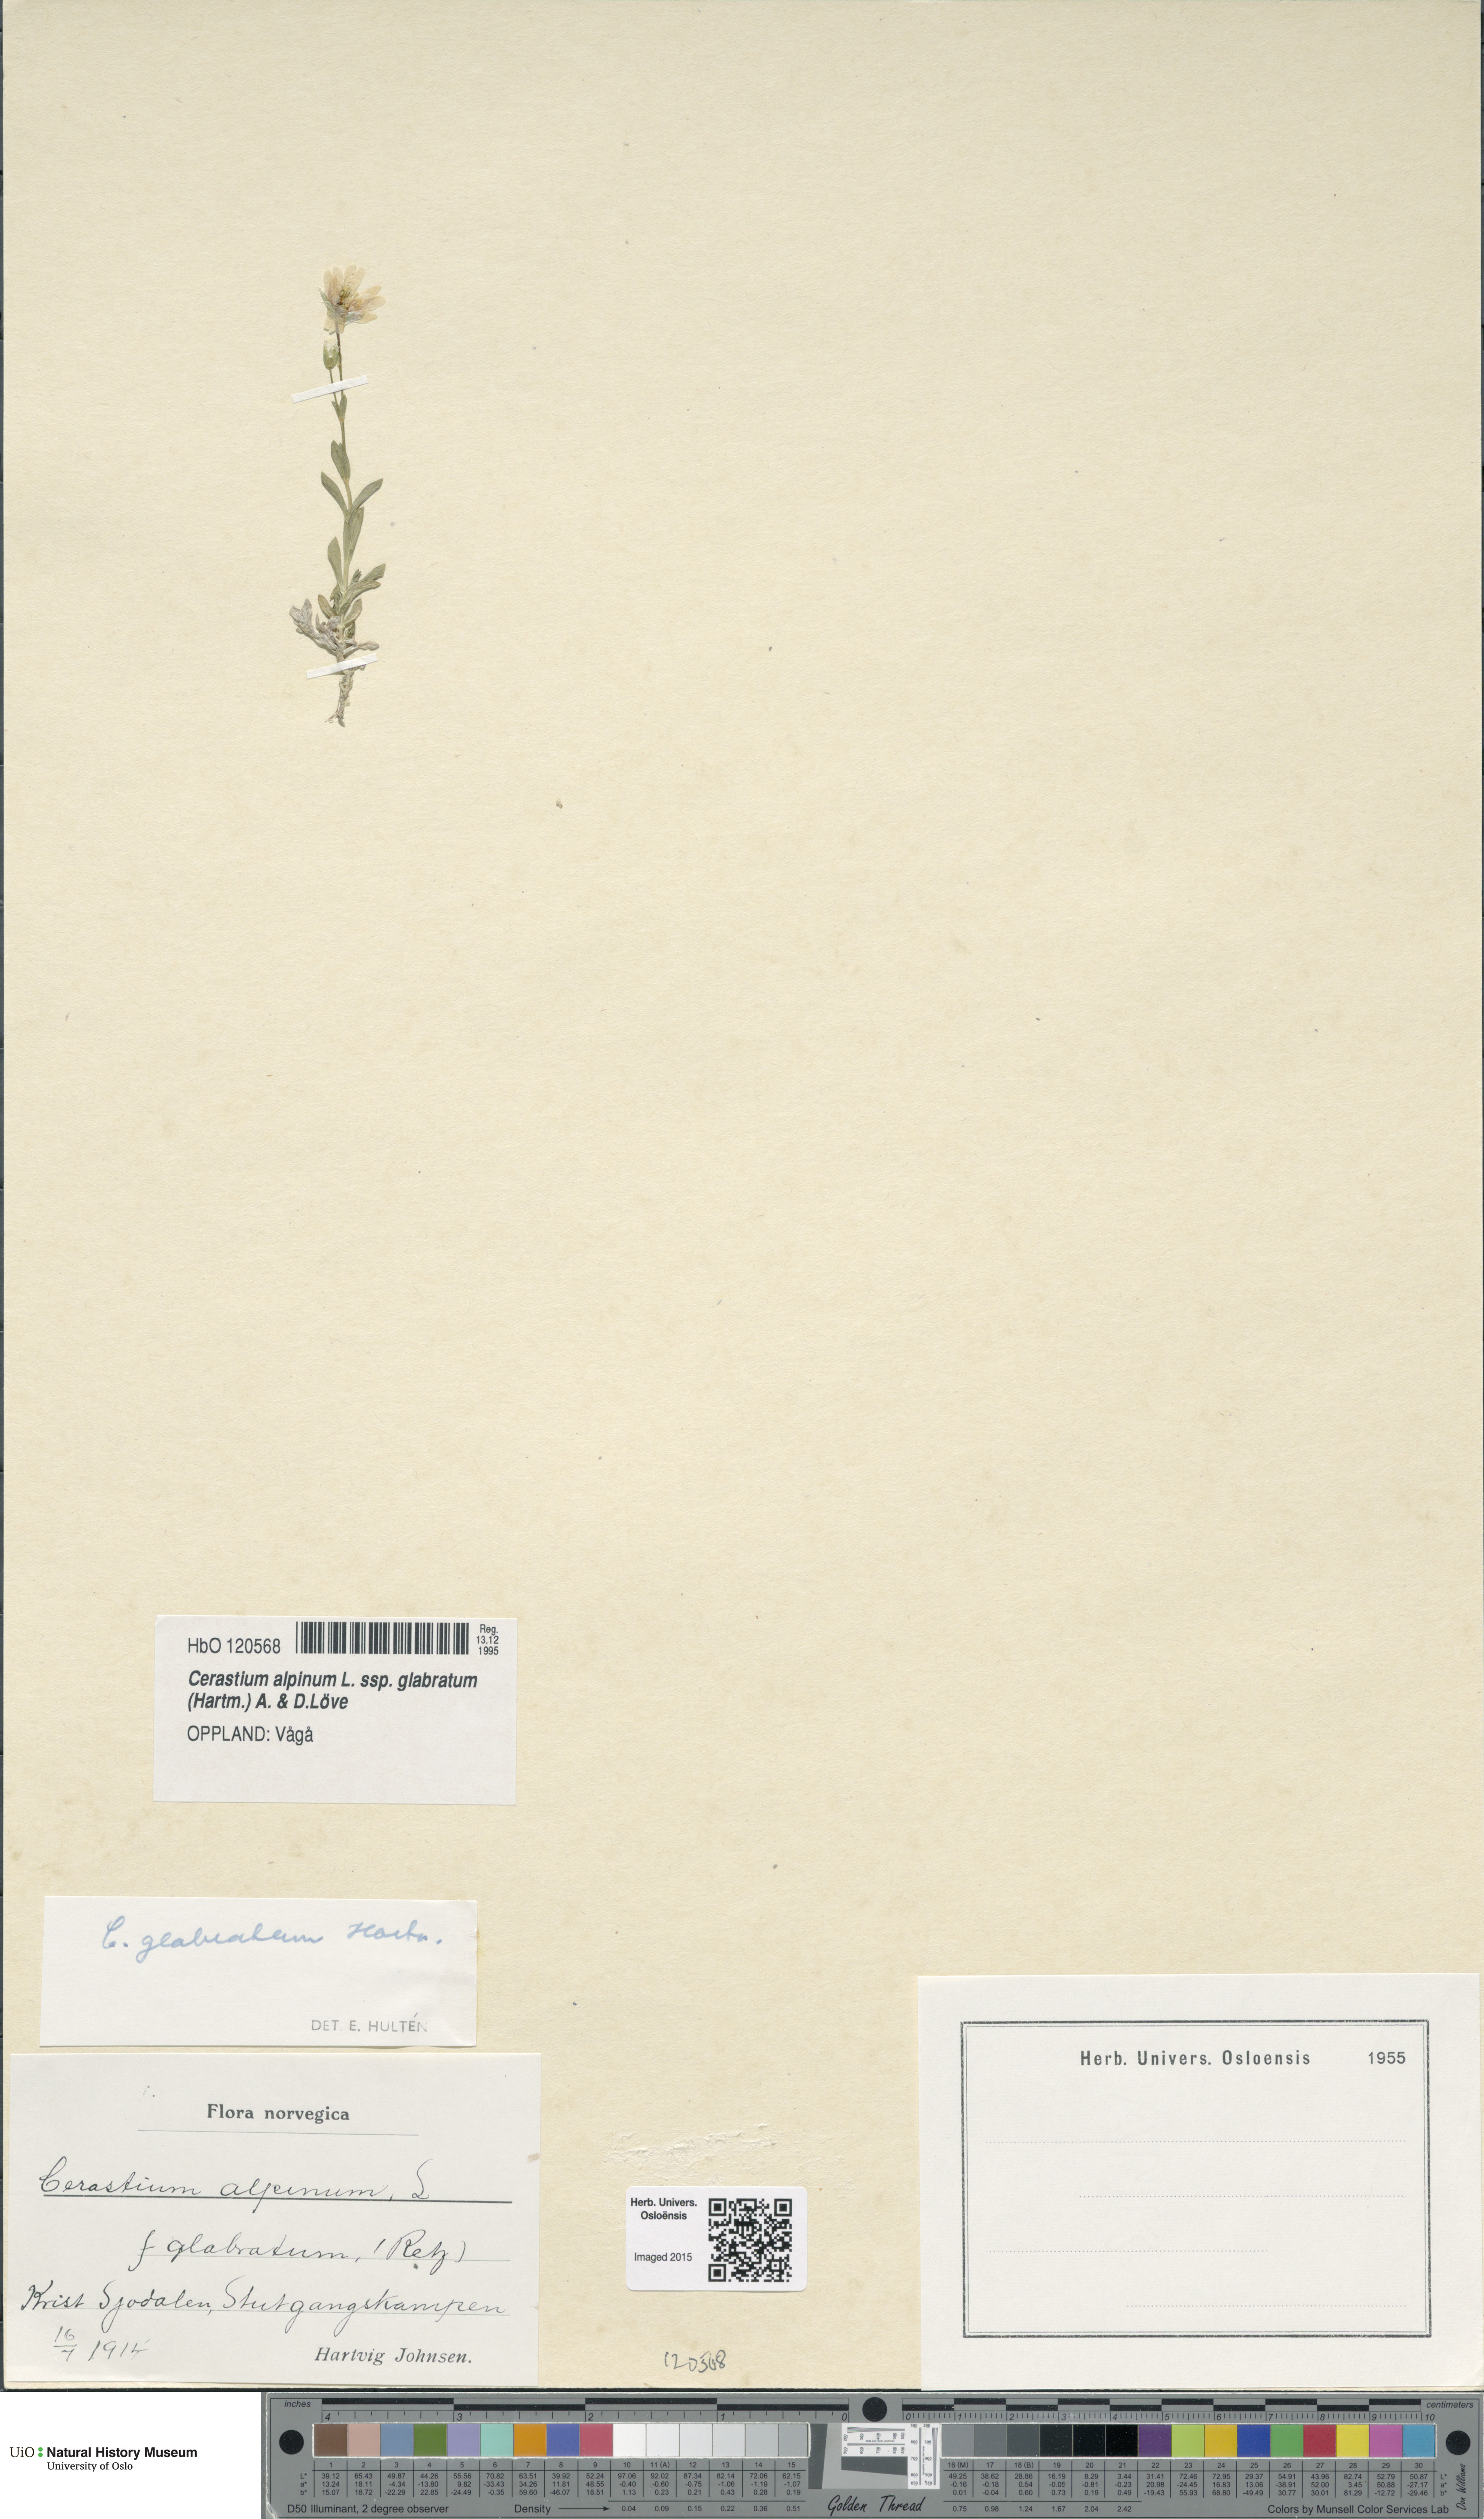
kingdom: Plantae
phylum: Tracheophyta
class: Magnoliopsida
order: Caryophyllales
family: Caryophyllaceae
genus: Cerastium
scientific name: Cerastium alpinum
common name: Alpine mouse-ear
